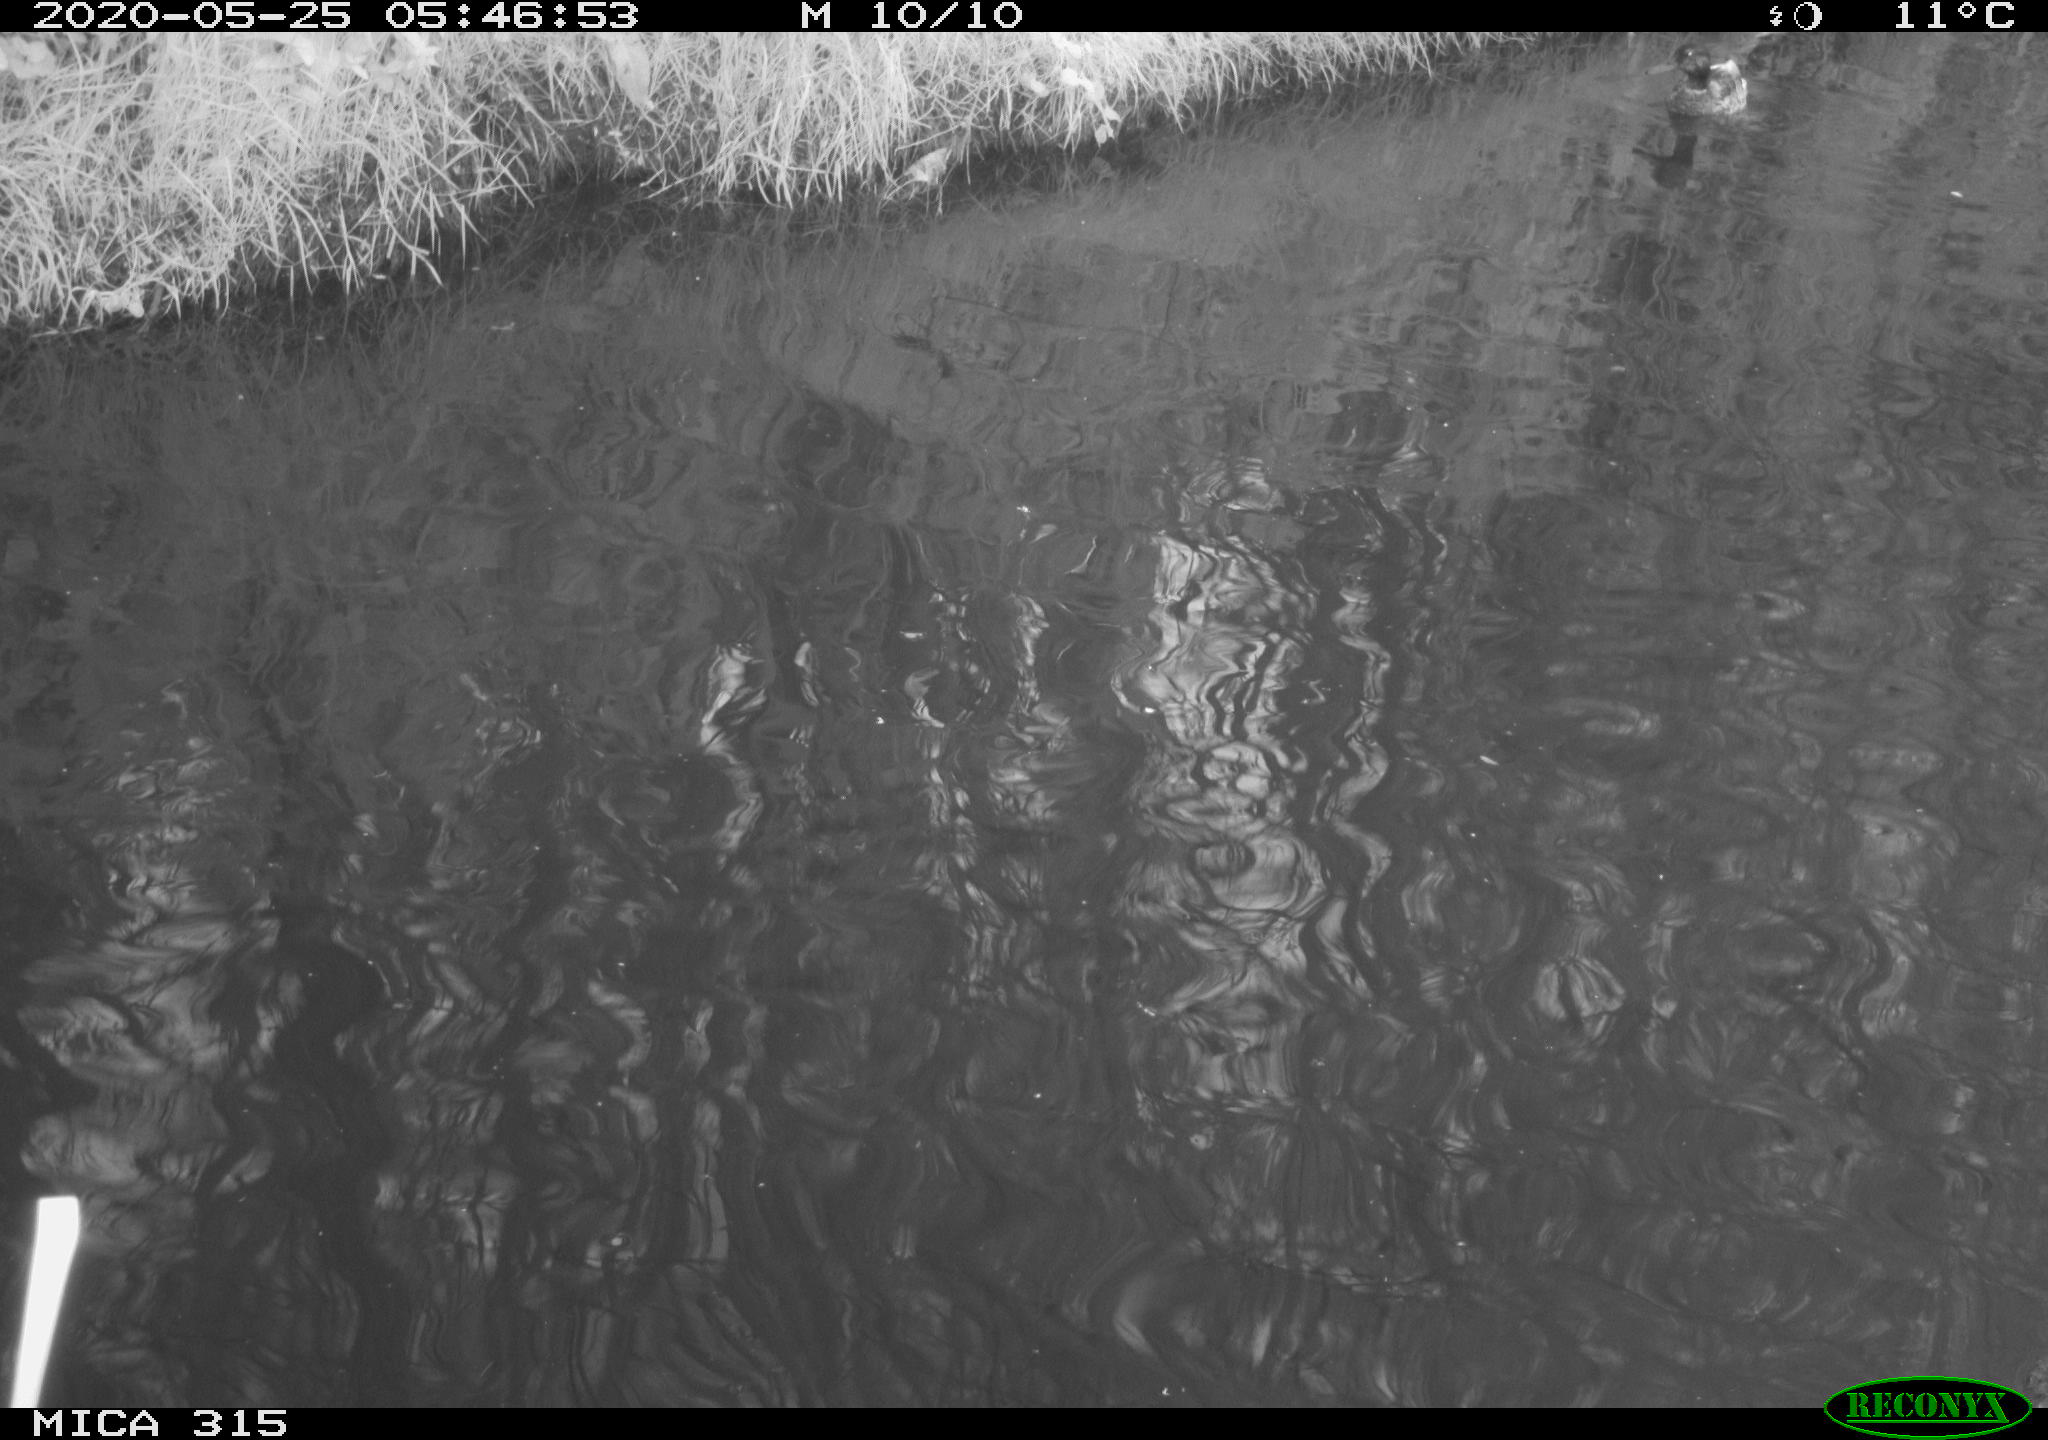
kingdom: Animalia
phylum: Chordata
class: Aves
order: Anseriformes
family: Anatidae
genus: Anas
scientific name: Anas platyrhynchos
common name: Mallard
